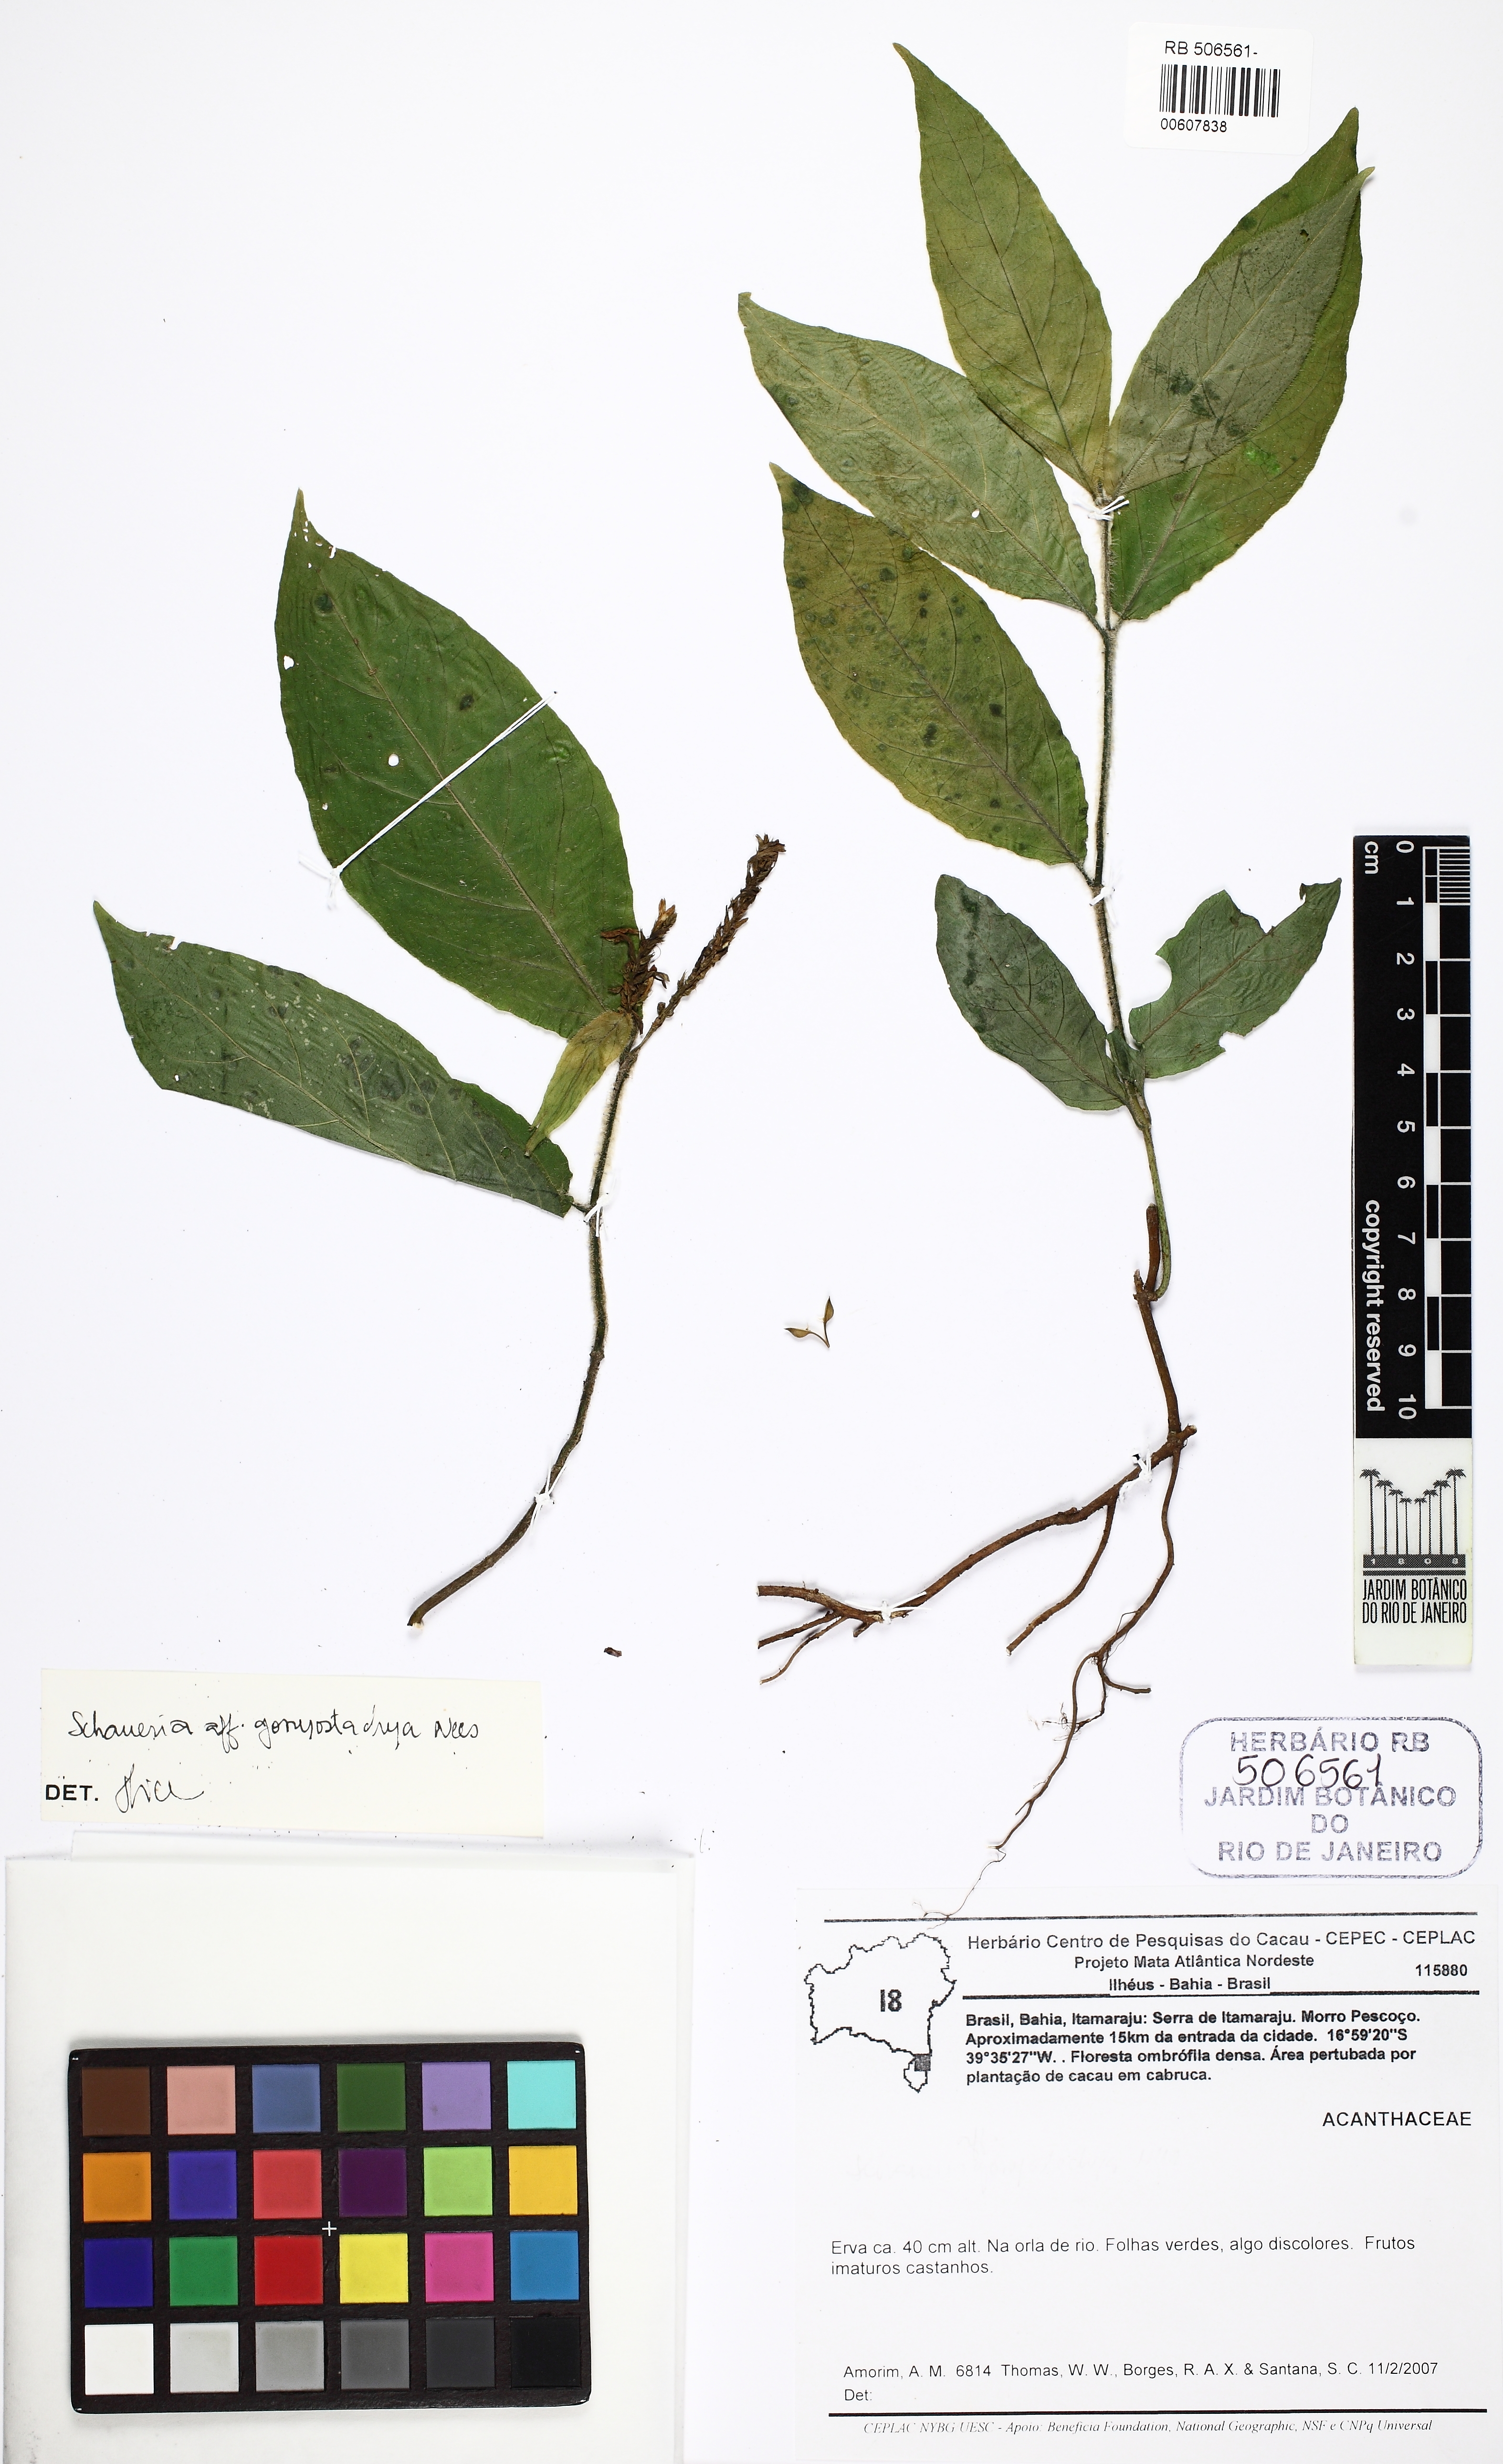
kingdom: Plantae
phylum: Tracheophyta
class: Magnoliopsida
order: Lamiales
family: Acanthaceae
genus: Schaueria
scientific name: Schaueria gonyostachya
